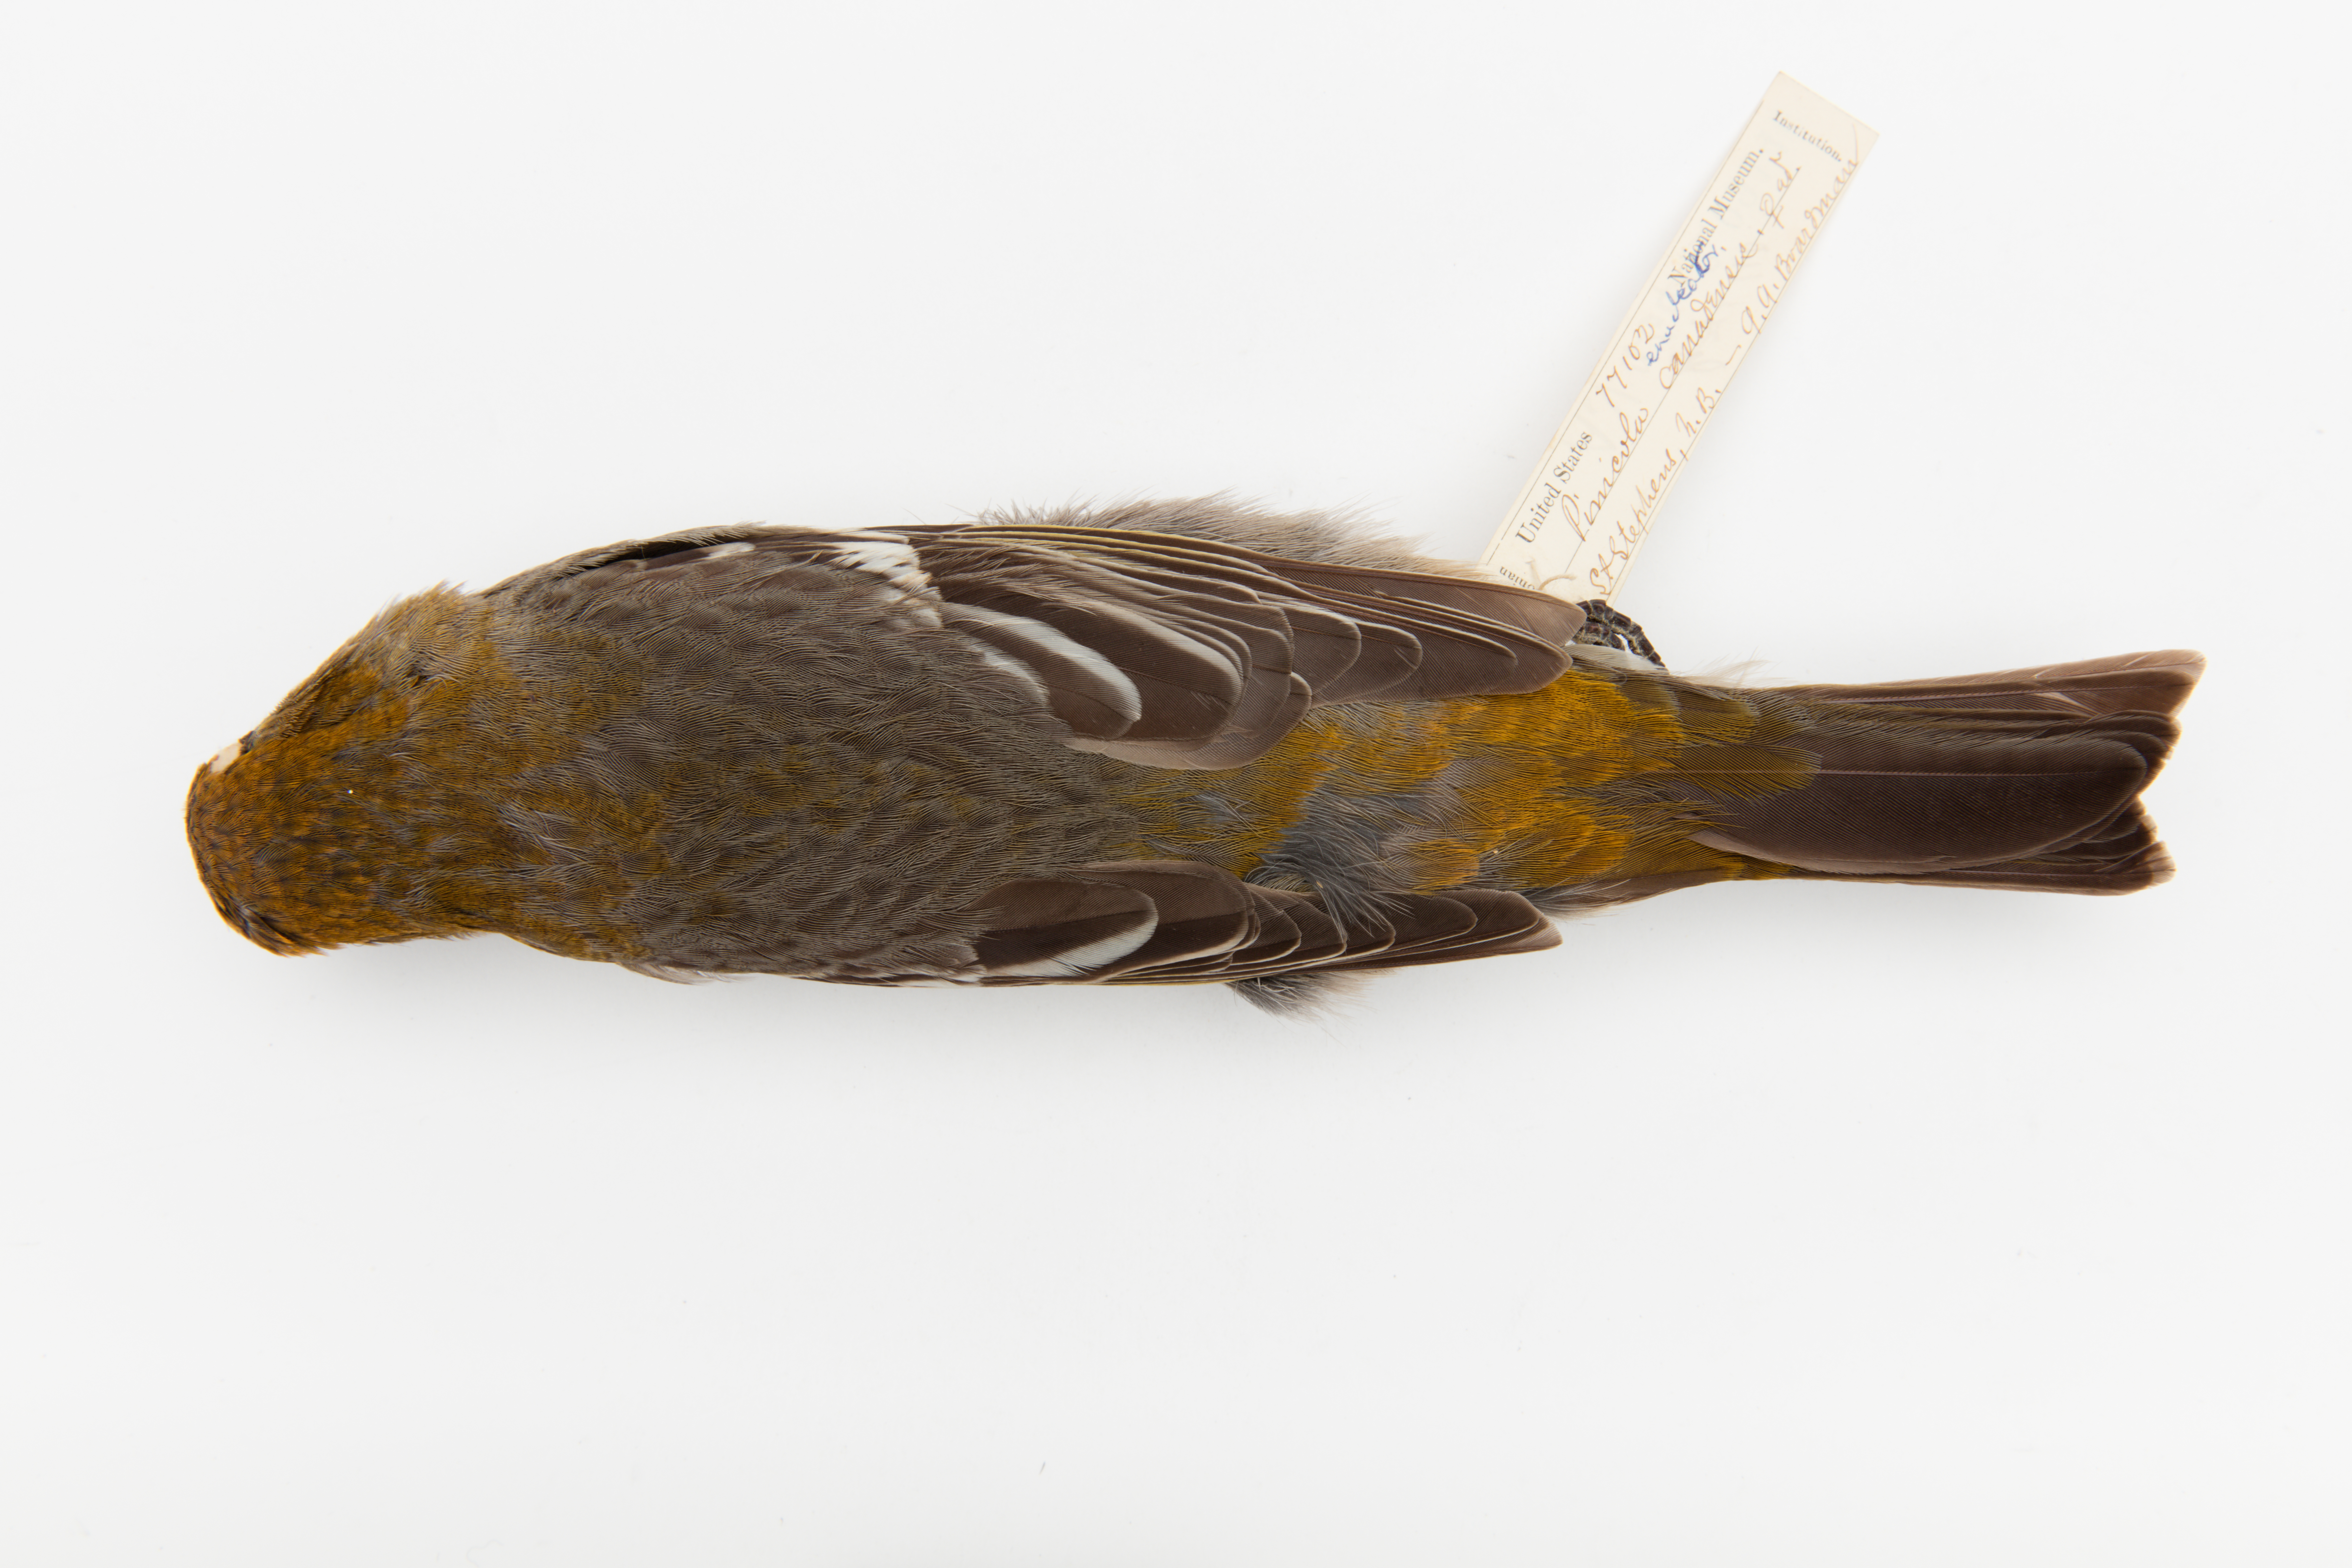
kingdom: Animalia
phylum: Chordata
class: Aves
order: Passeriformes
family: Fringillidae
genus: Pinicola
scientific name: Pinicola enucleator
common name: Pine grosbeak
